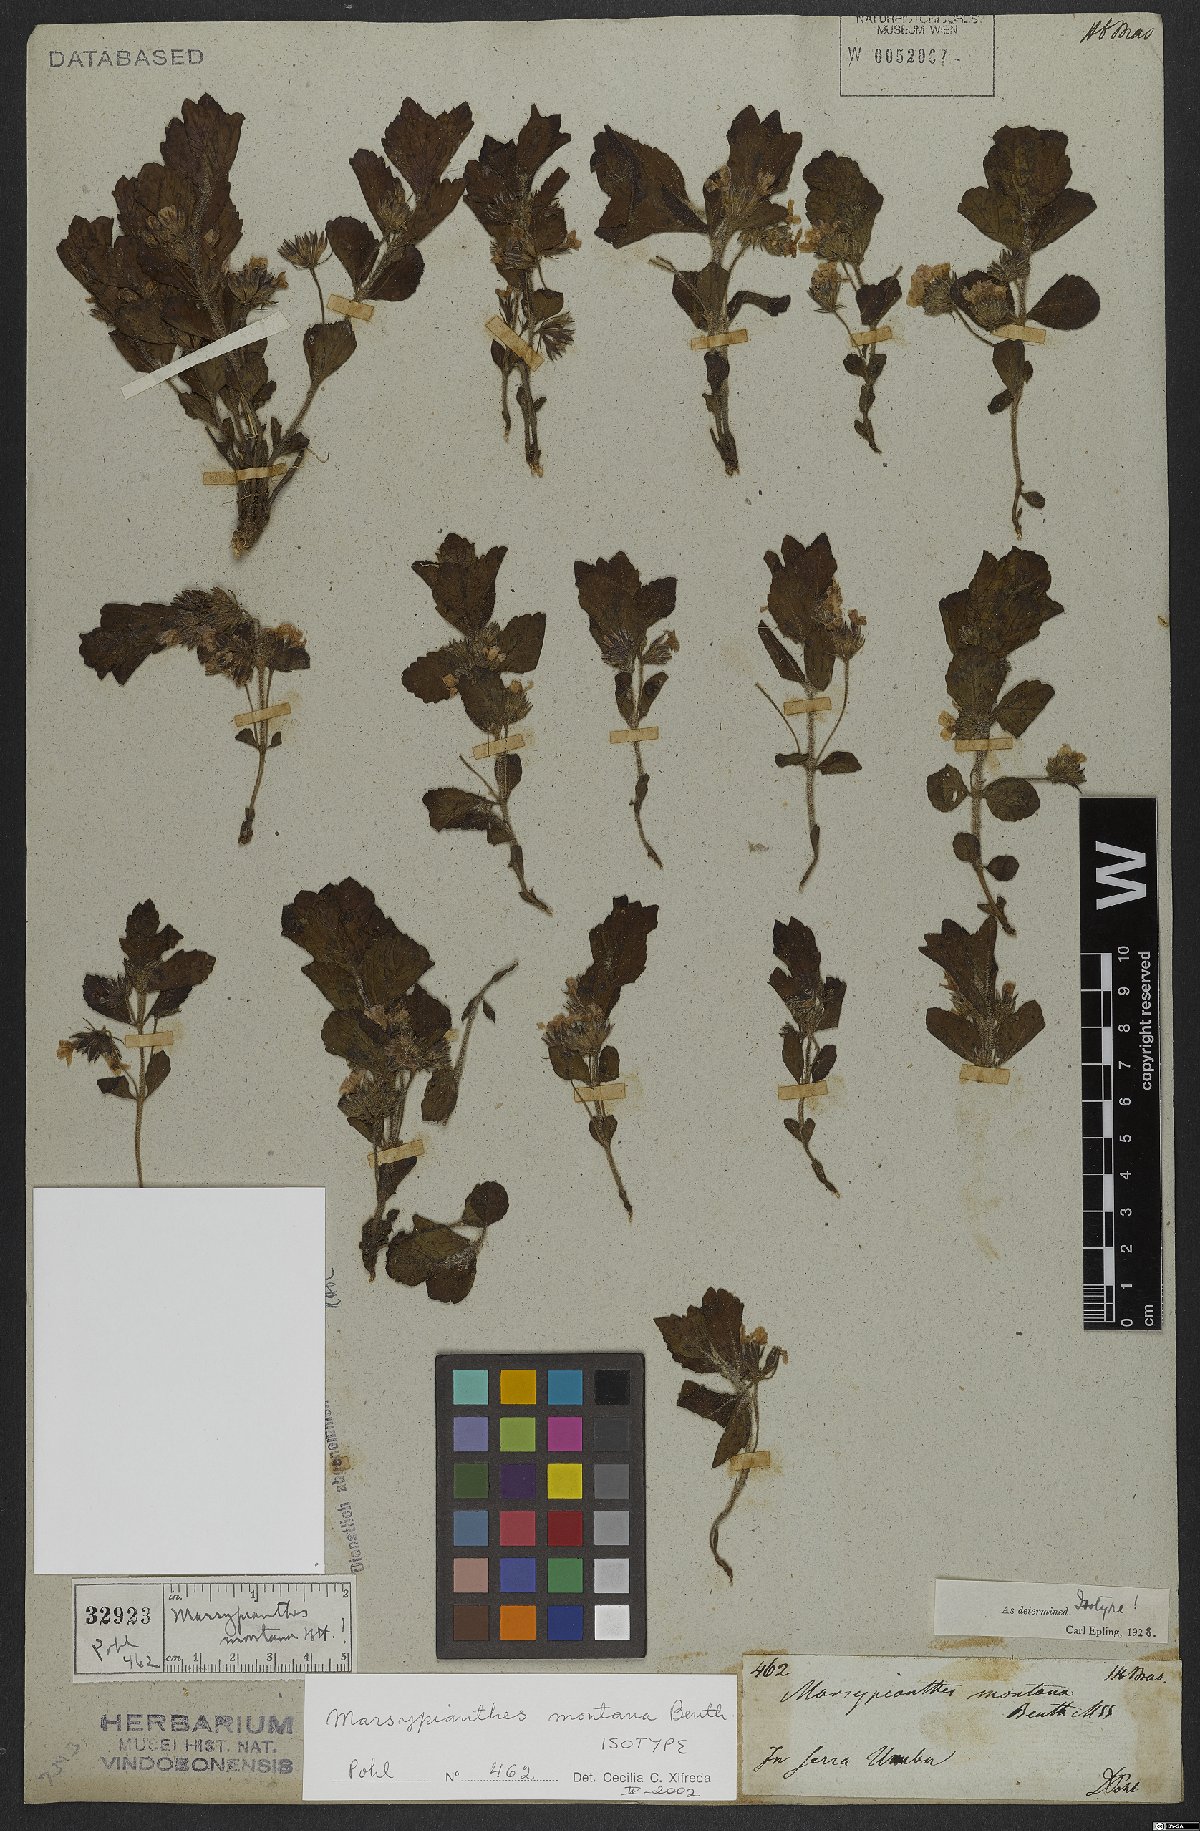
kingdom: Plantae
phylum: Tracheophyta
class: Magnoliopsida
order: Lamiales
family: Lamiaceae
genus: Marsypianthes
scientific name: Marsypianthes montana
